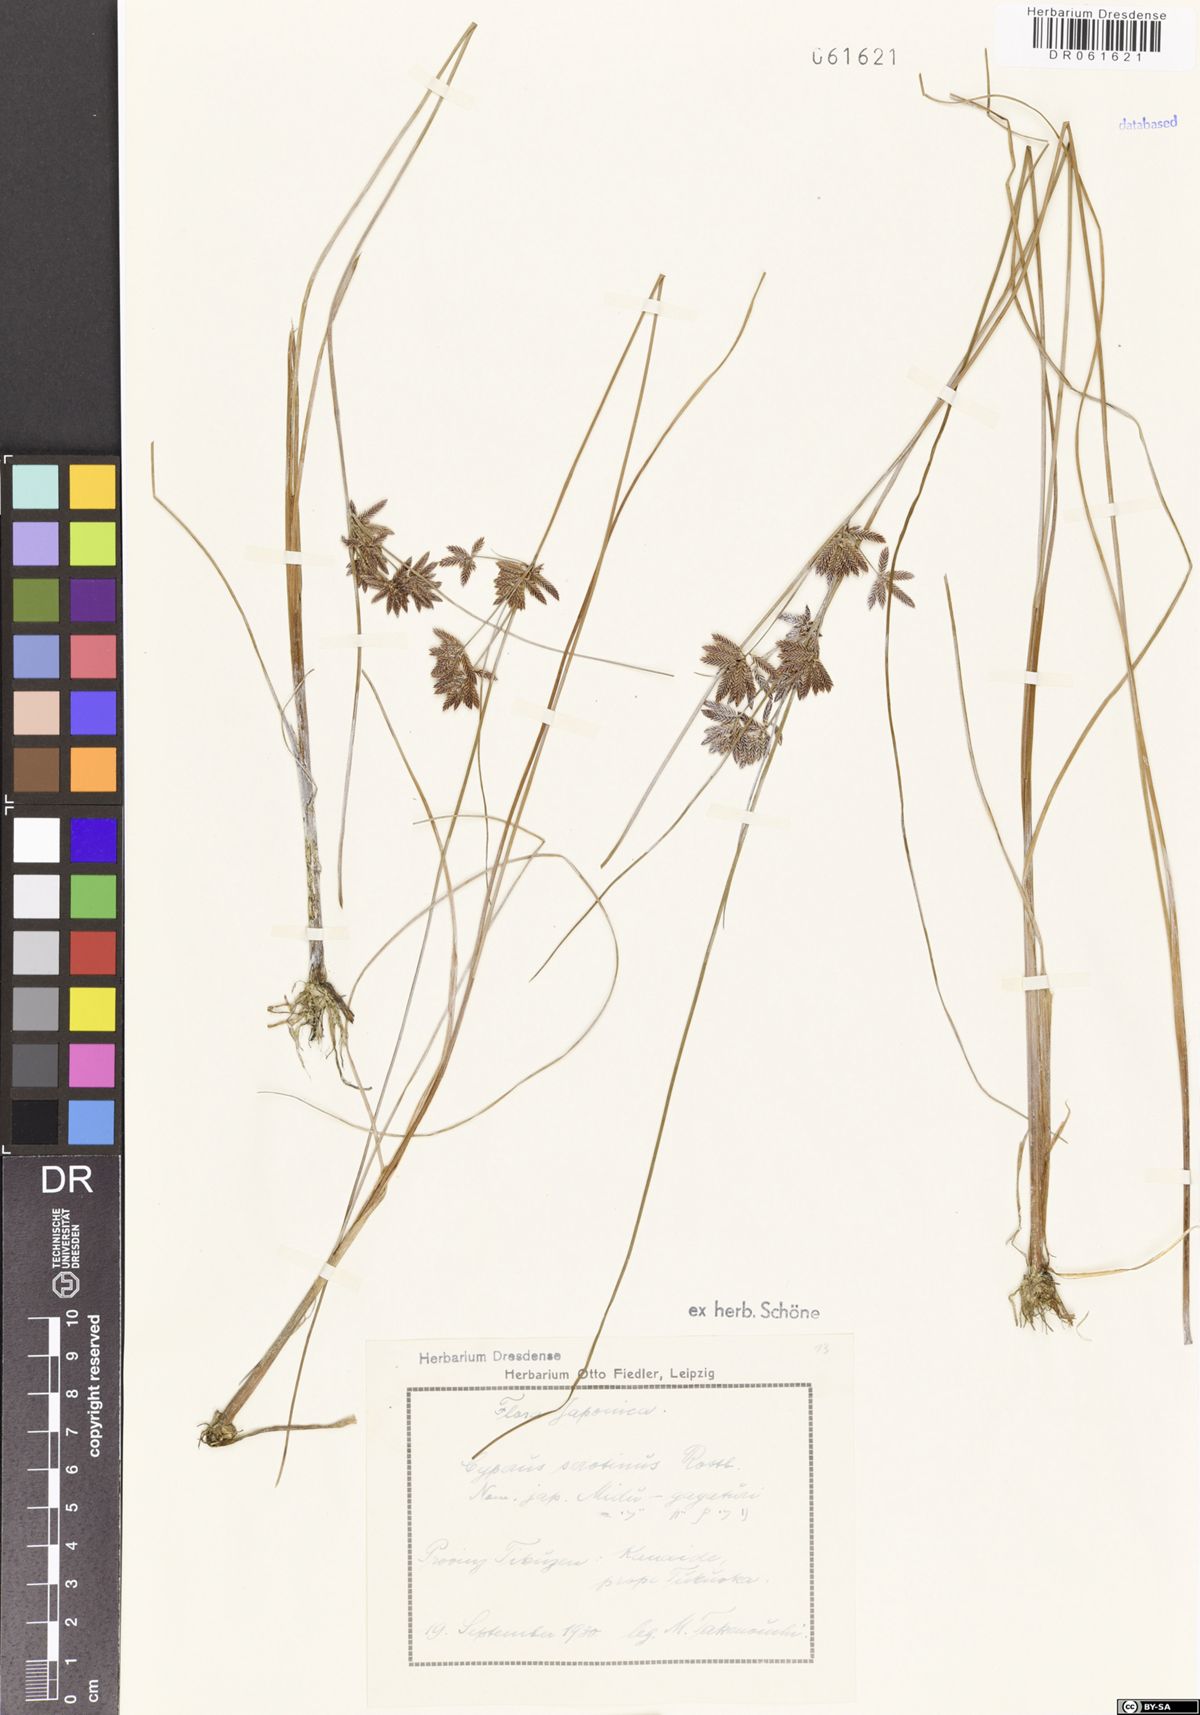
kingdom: Plantae
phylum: Tracheophyta
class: Liliopsida
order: Poales
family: Cyperaceae
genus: Cyperus
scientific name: Cyperus serotinus
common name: Tidalmarsh flatsedge
